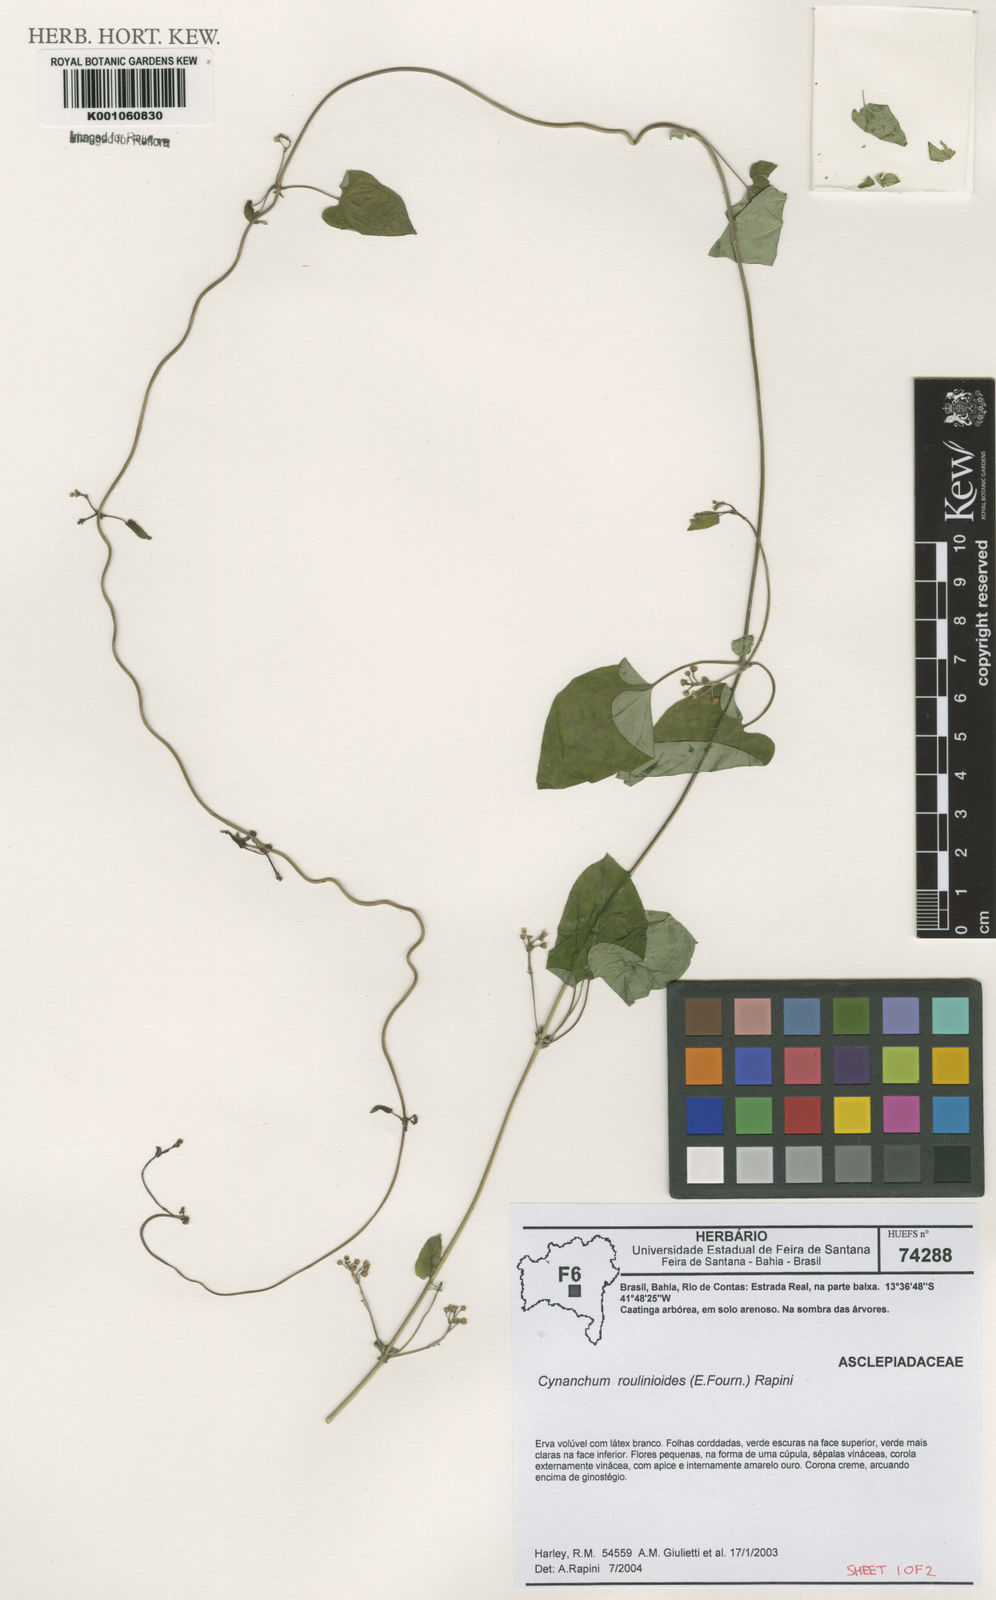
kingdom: Plantae
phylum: Tracheophyta
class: Magnoliopsida
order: Gentianales
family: Apocynaceae
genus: Cynanchum
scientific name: Cynanchum roulinioides
